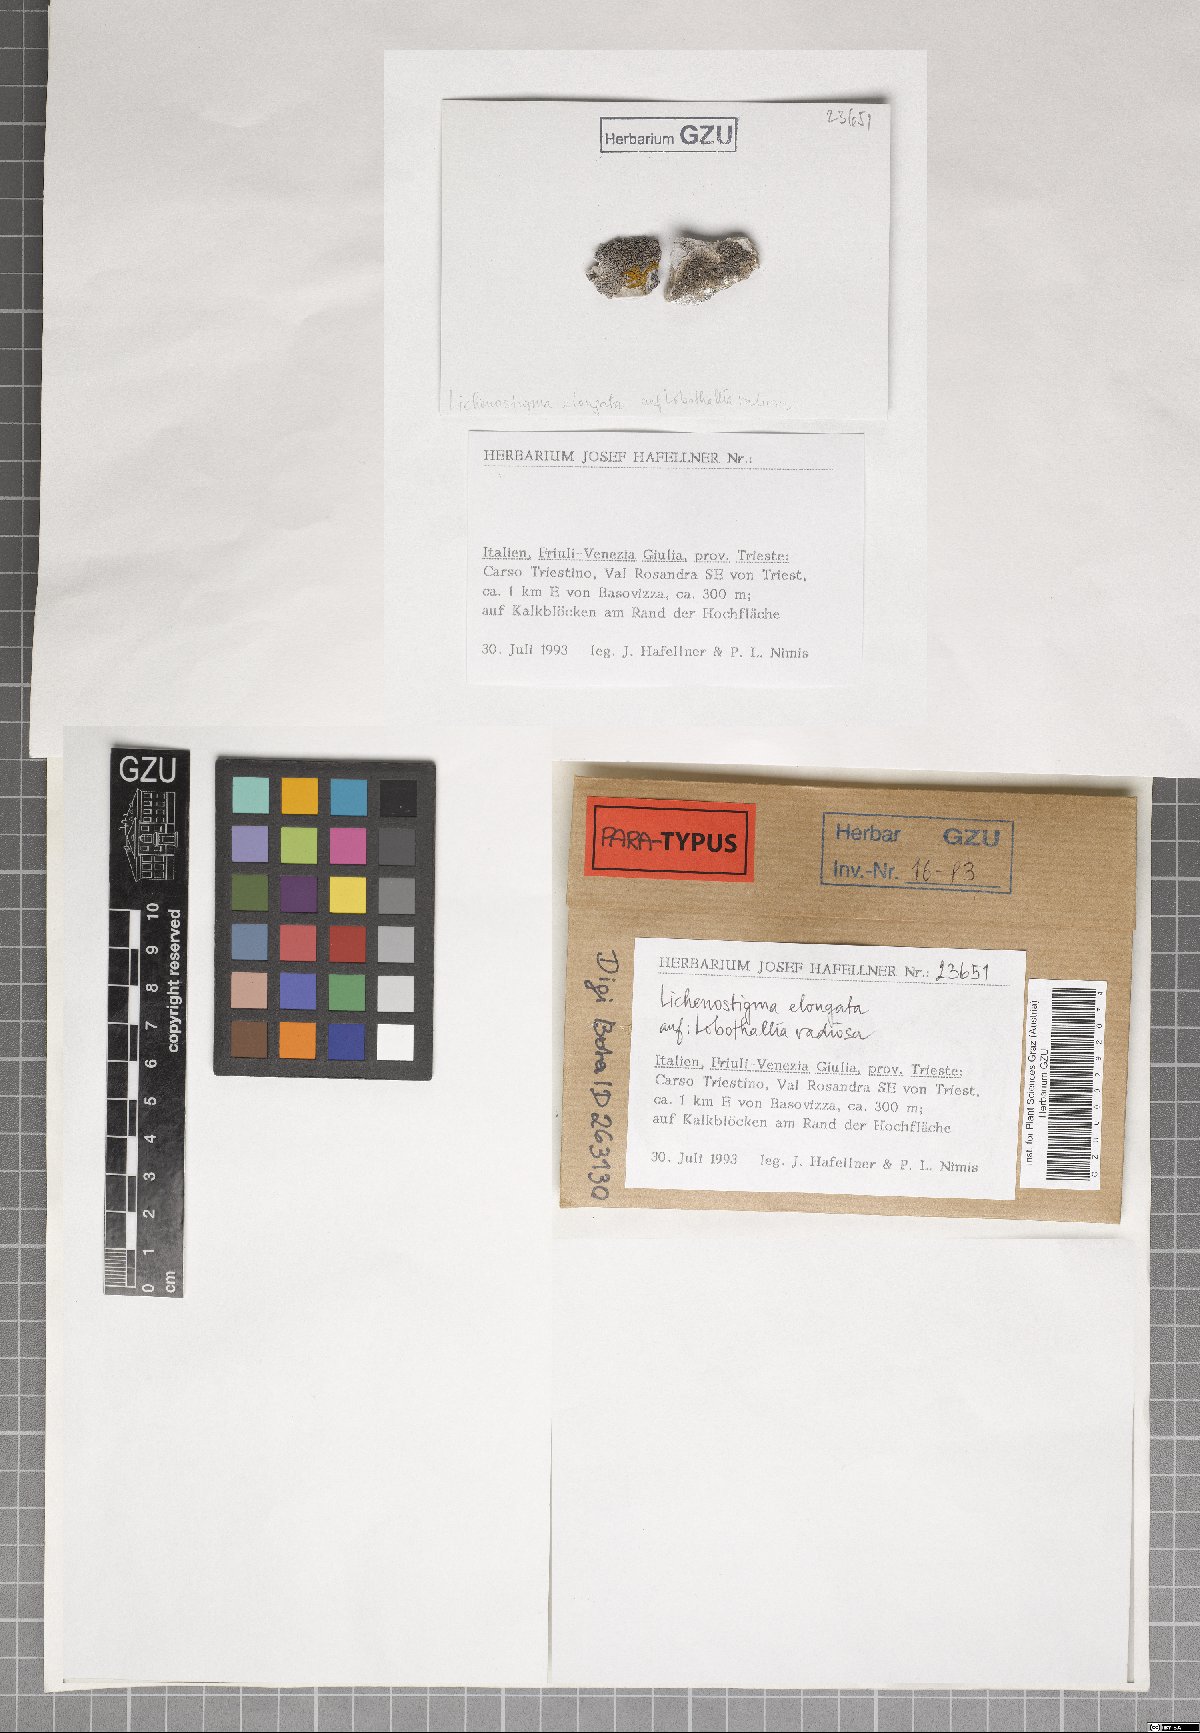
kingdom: Fungi
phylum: Ascomycota
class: Arthoniomycetes
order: Lichenostigmatales
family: Phaeococcomycetaceae
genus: Lichenostigma
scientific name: Lichenostigma elongatum
